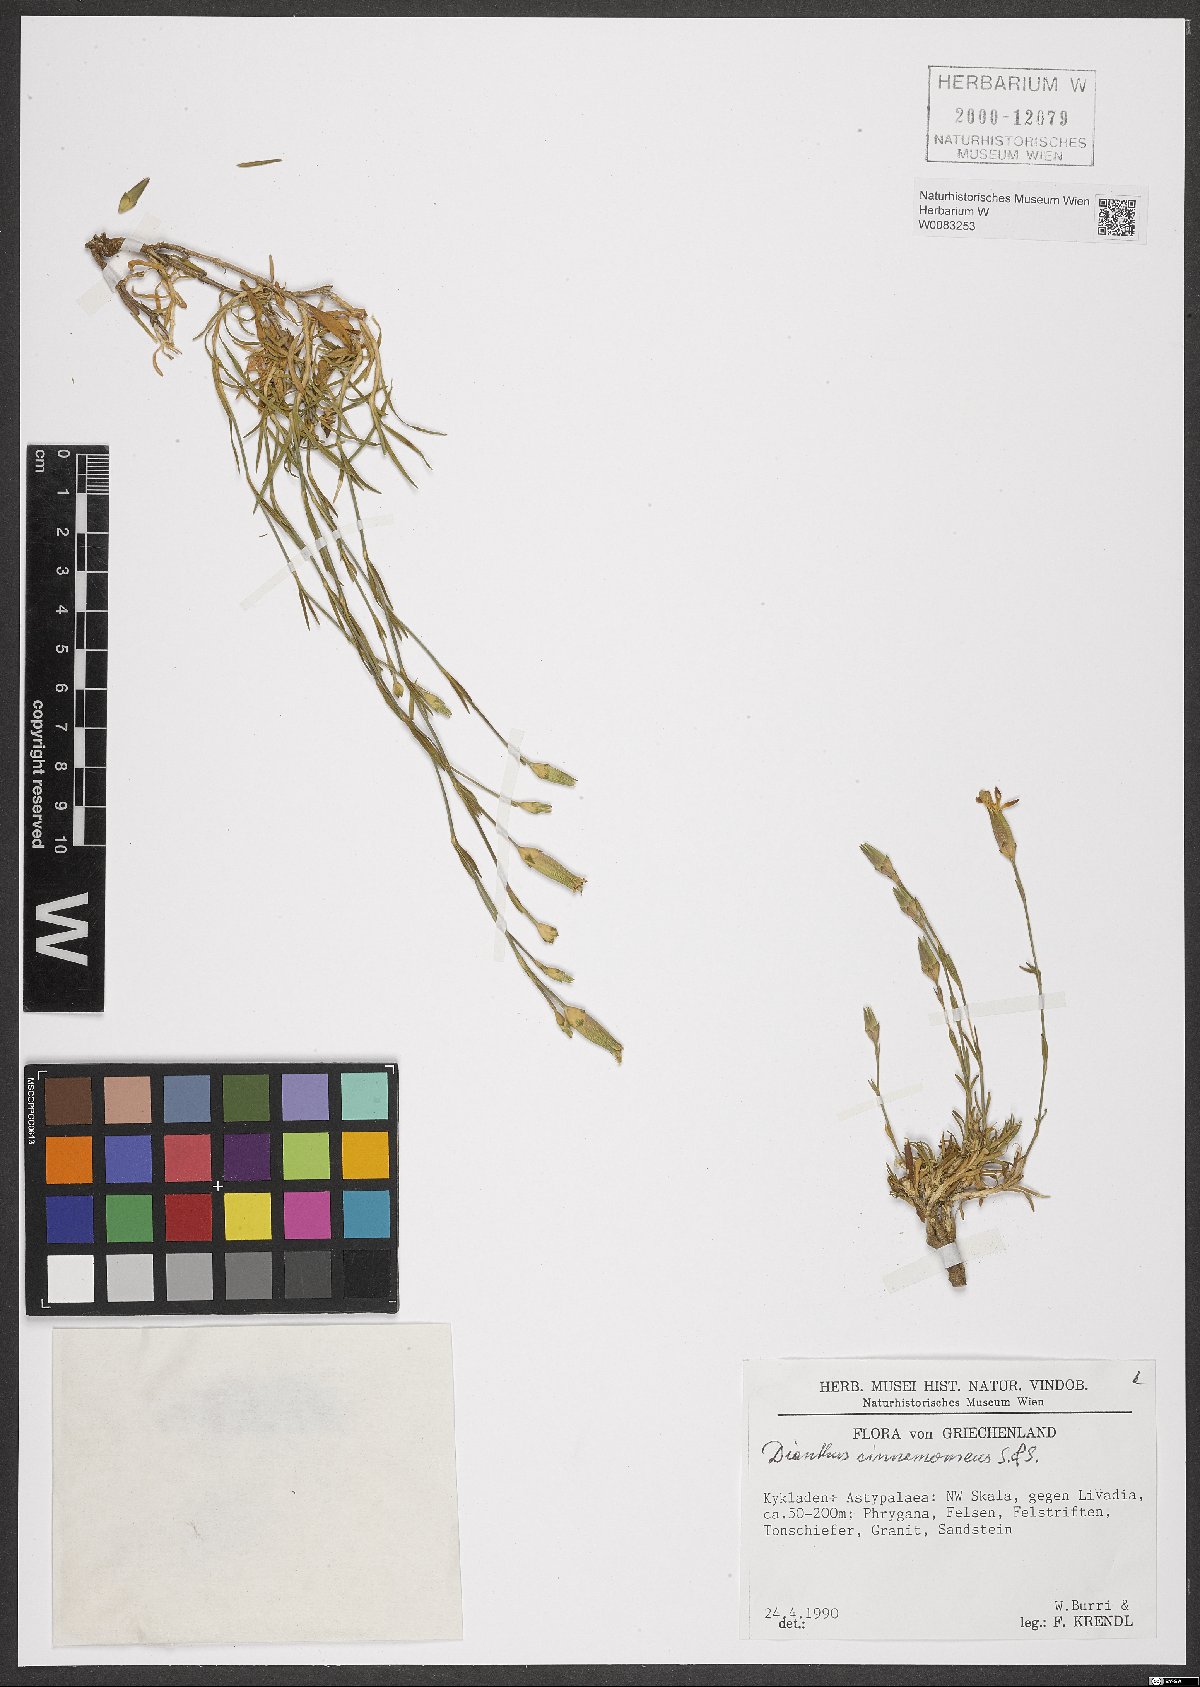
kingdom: Plantae
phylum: Tracheophyta
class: Magnoliopsida
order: Caryophyllales
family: Caryophyllaceae
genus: Dianthus
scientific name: Dianthus cinnamomeus
